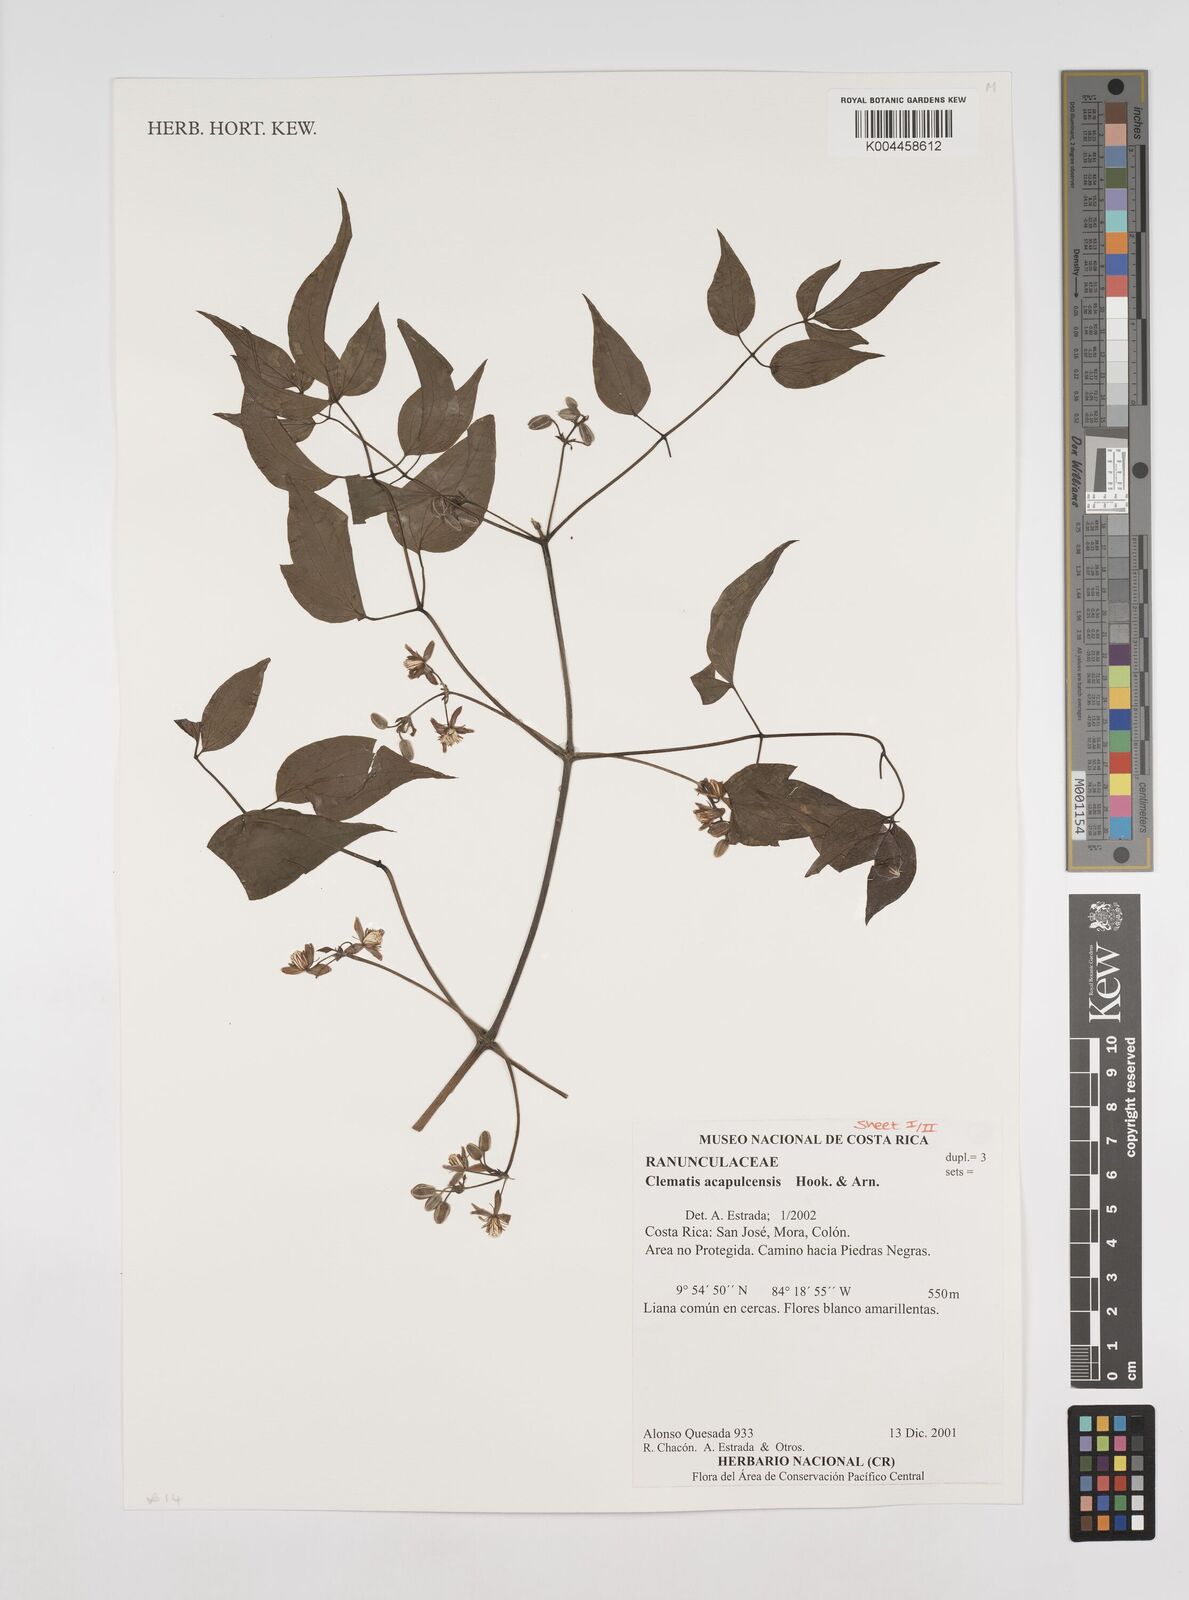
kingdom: Plantae
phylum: Tracheophyta
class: Magnoliopsida
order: Ranunculales
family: Ranunculaceae
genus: Clematis
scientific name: Clematis acapulcensis
